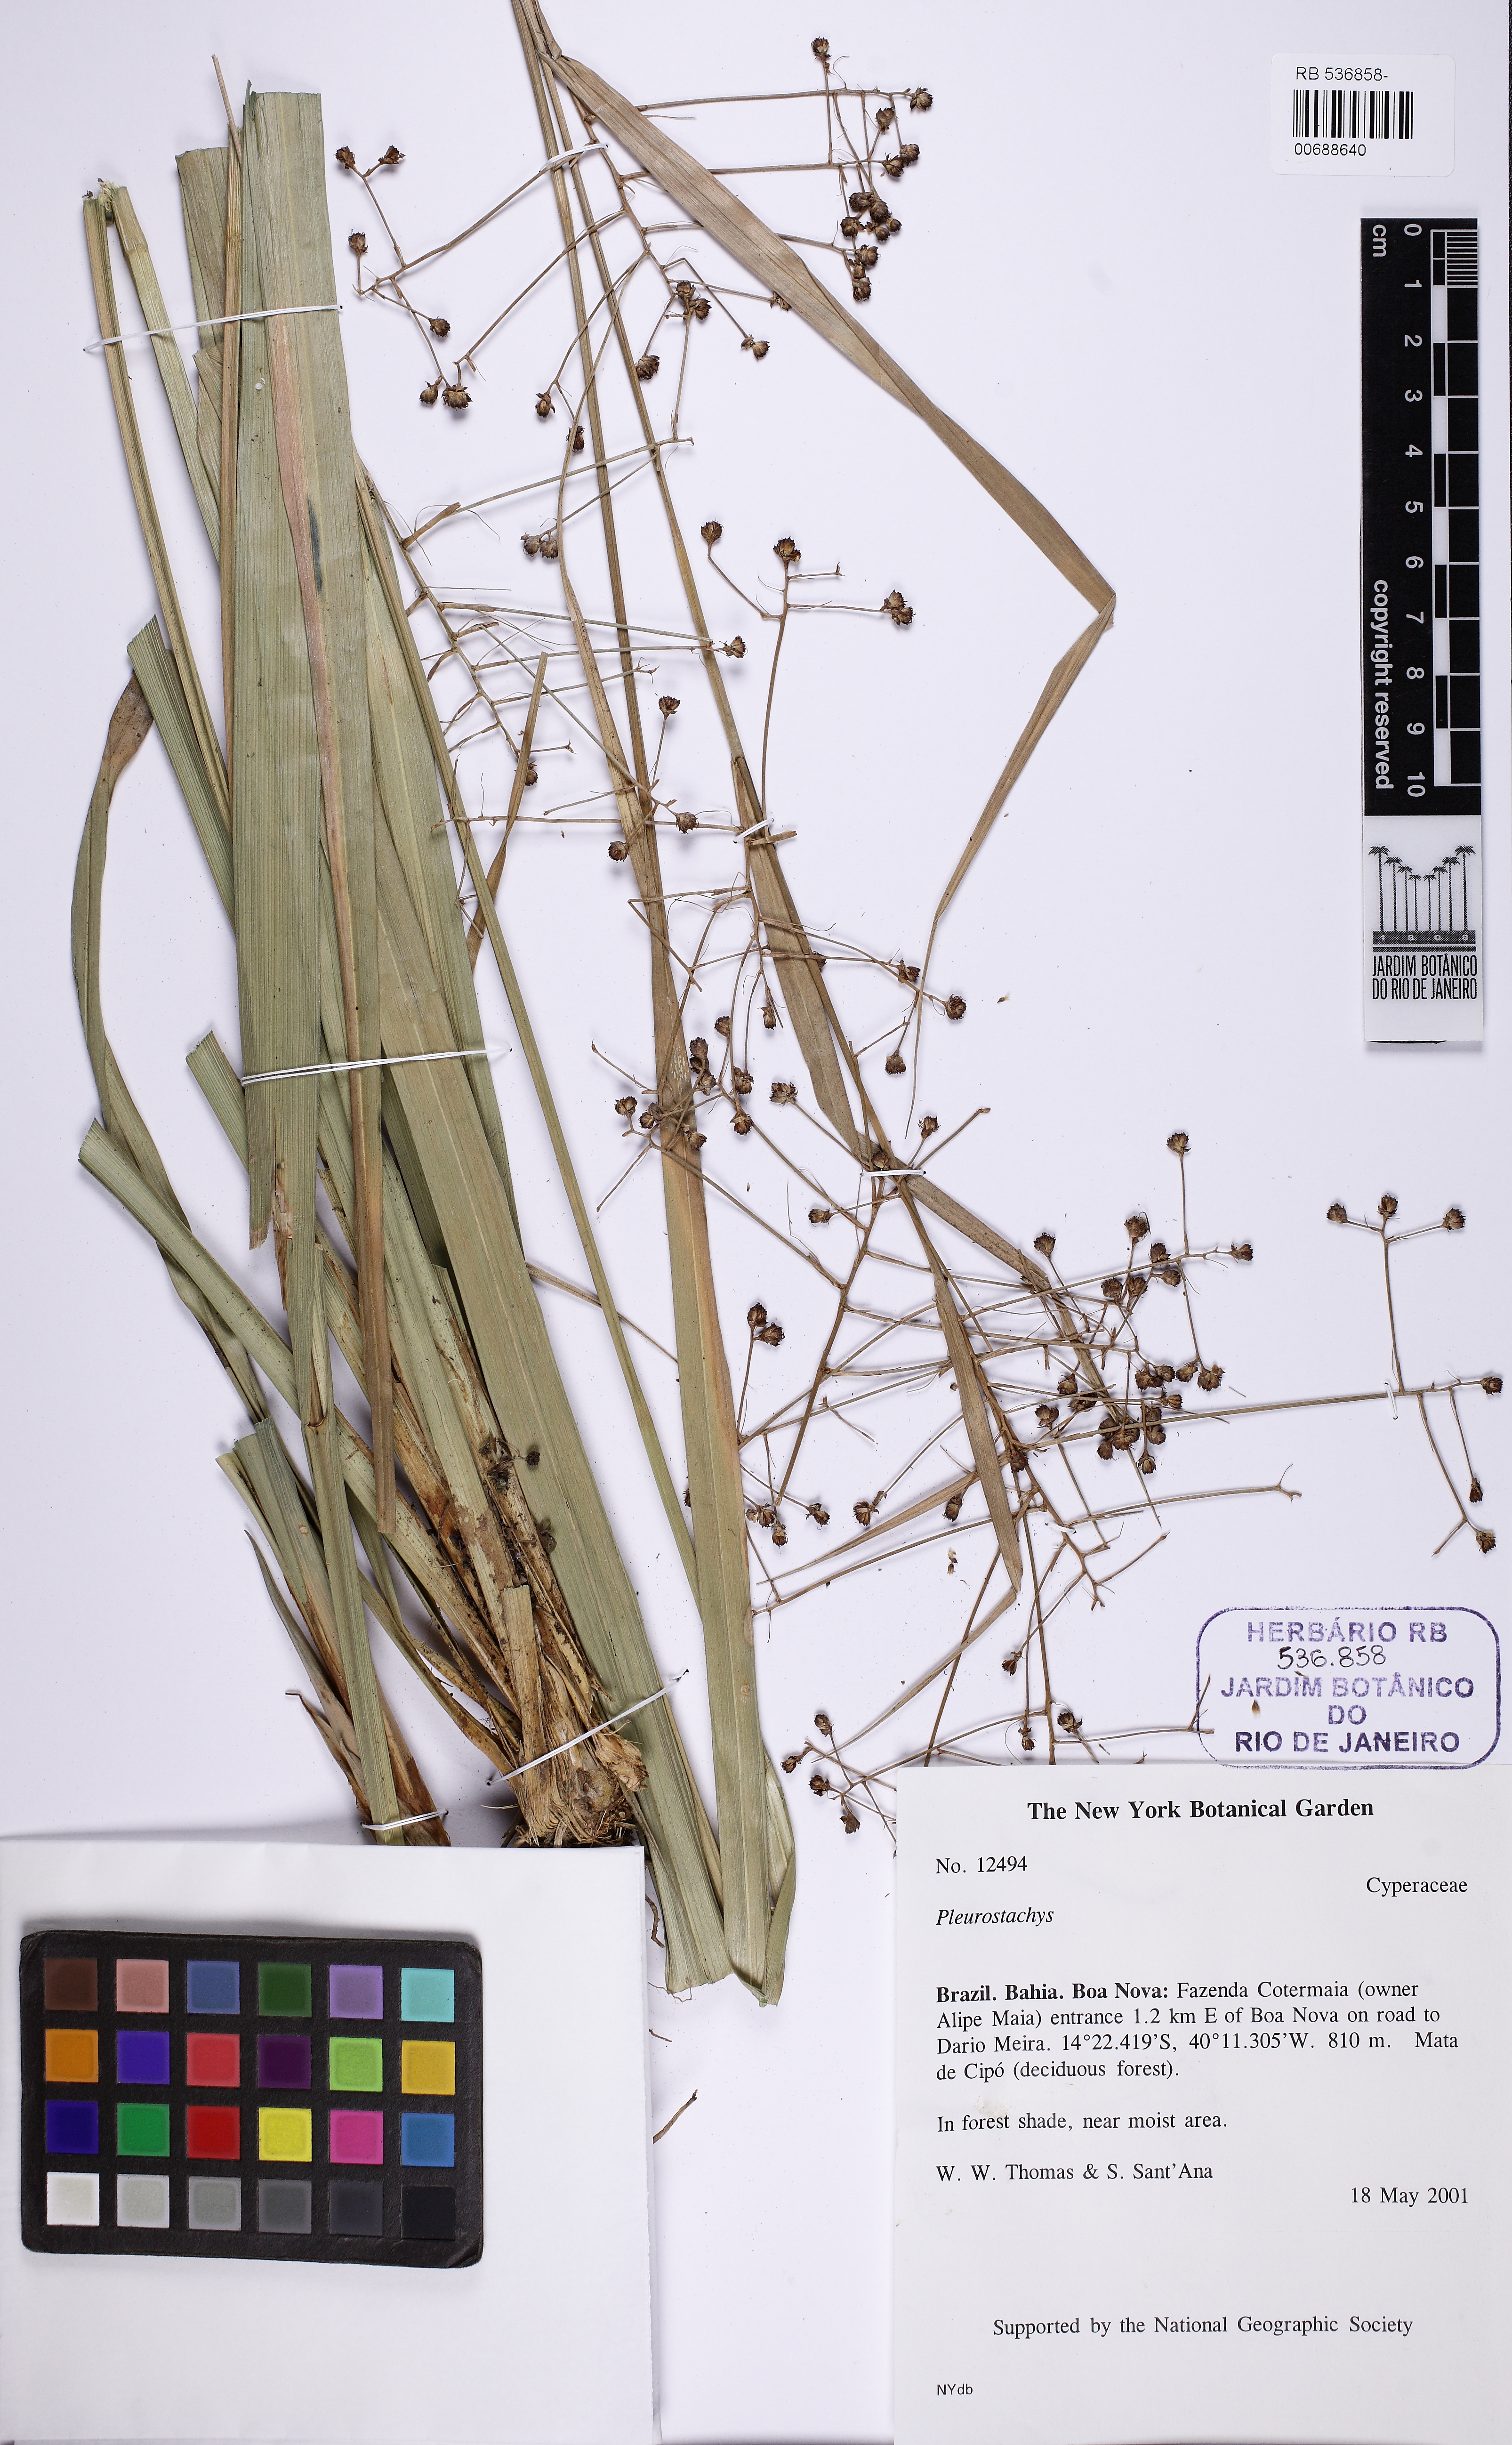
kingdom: Plantae
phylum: Tracheophyta
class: Liliopsida
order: Poales
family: Cyperaceae
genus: Rhynchospora
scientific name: Rhynchospora
